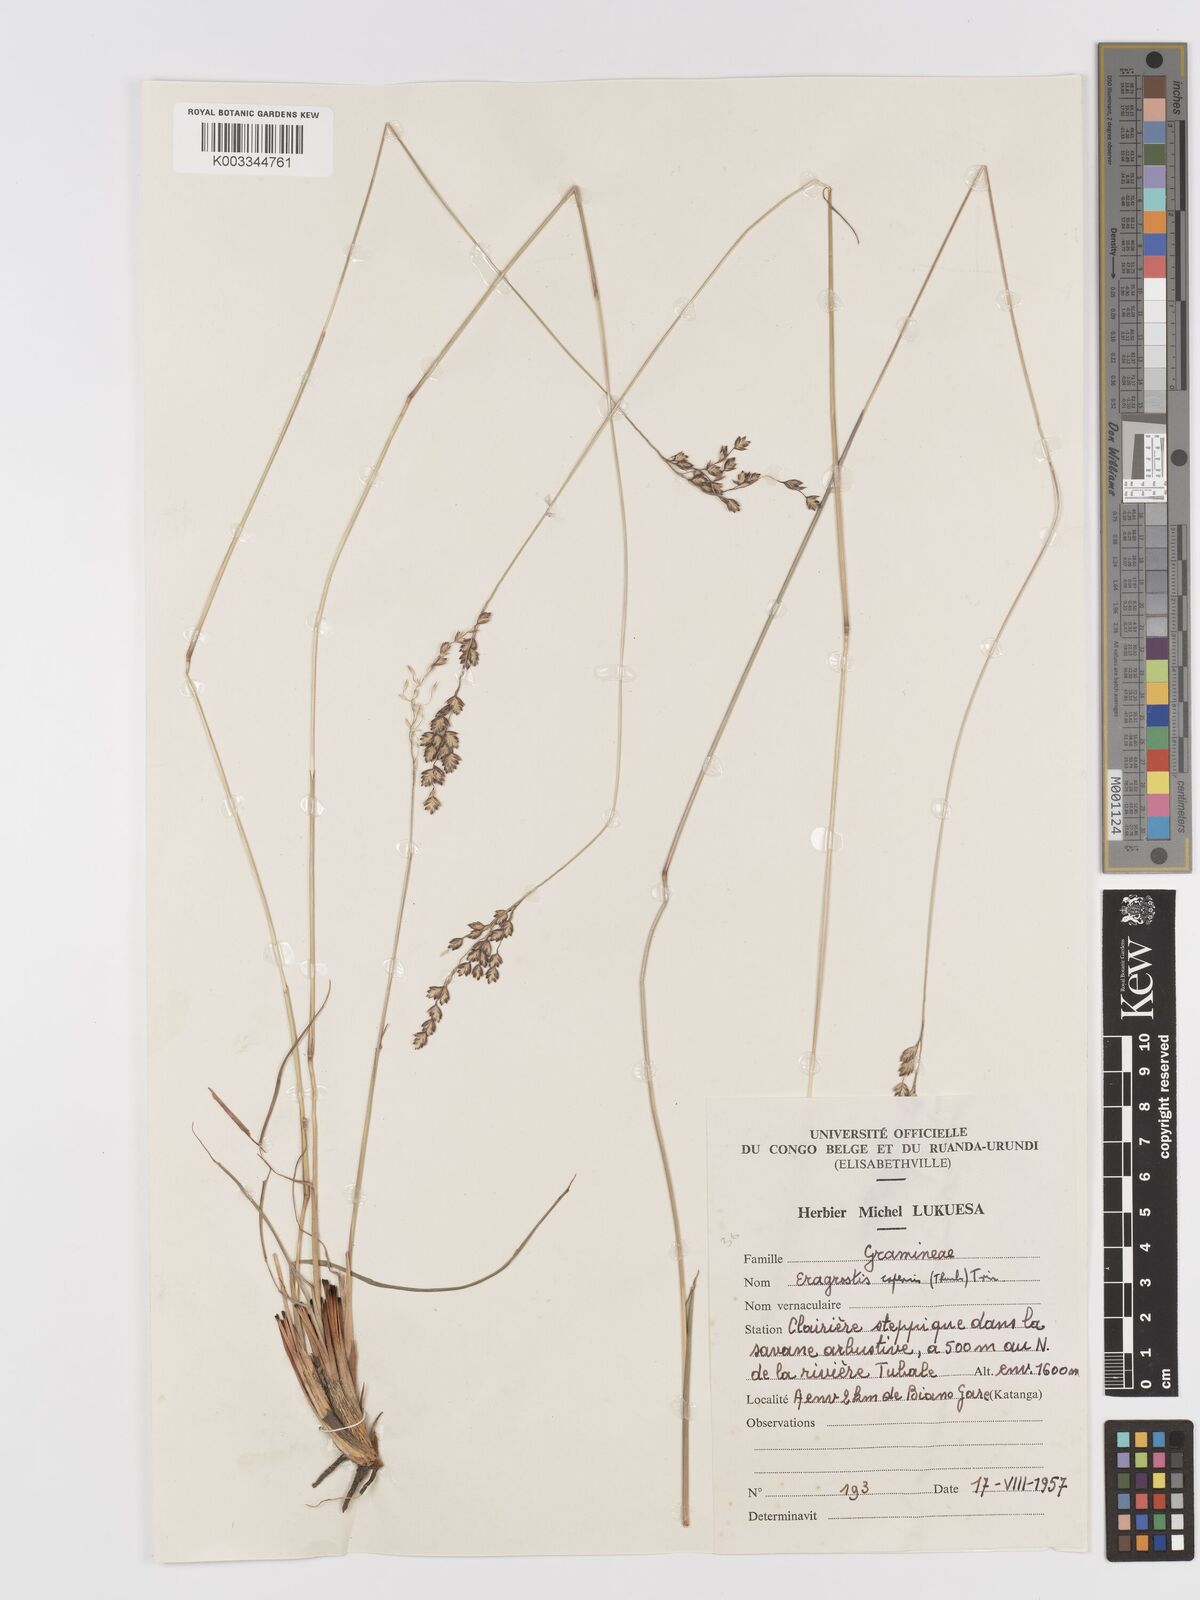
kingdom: Plantae
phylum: Tracheophyta
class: Liliopsida
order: Poales
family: Poaceae
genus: Eragrostis
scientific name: Eragrostis capensis
